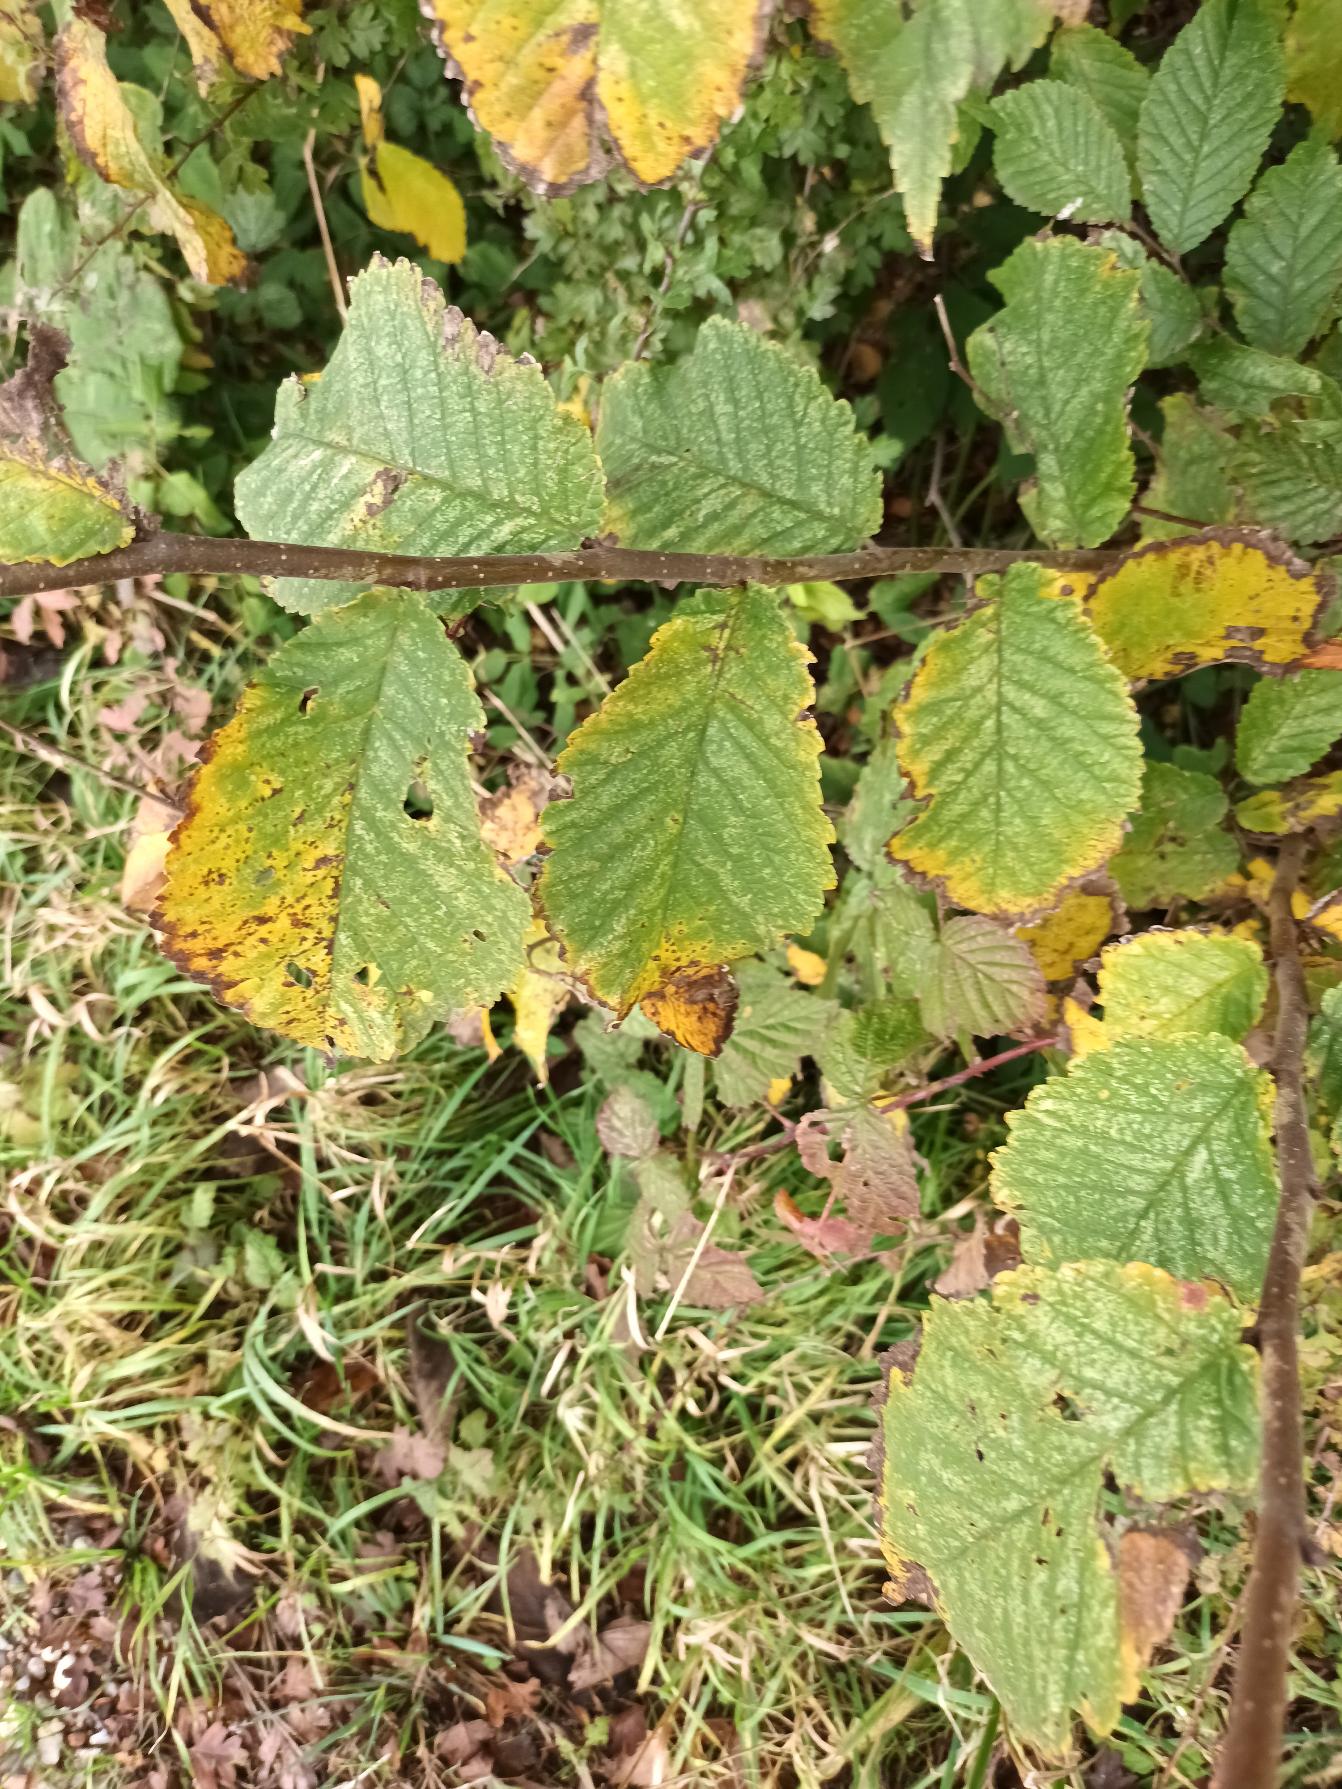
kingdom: Plantae
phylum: Tracheophyta
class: Magnoliopsida
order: Rosales
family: Ulmaceae
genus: Ulmus
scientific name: Ulmus glabra
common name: Skov-elm/storbladet elm
